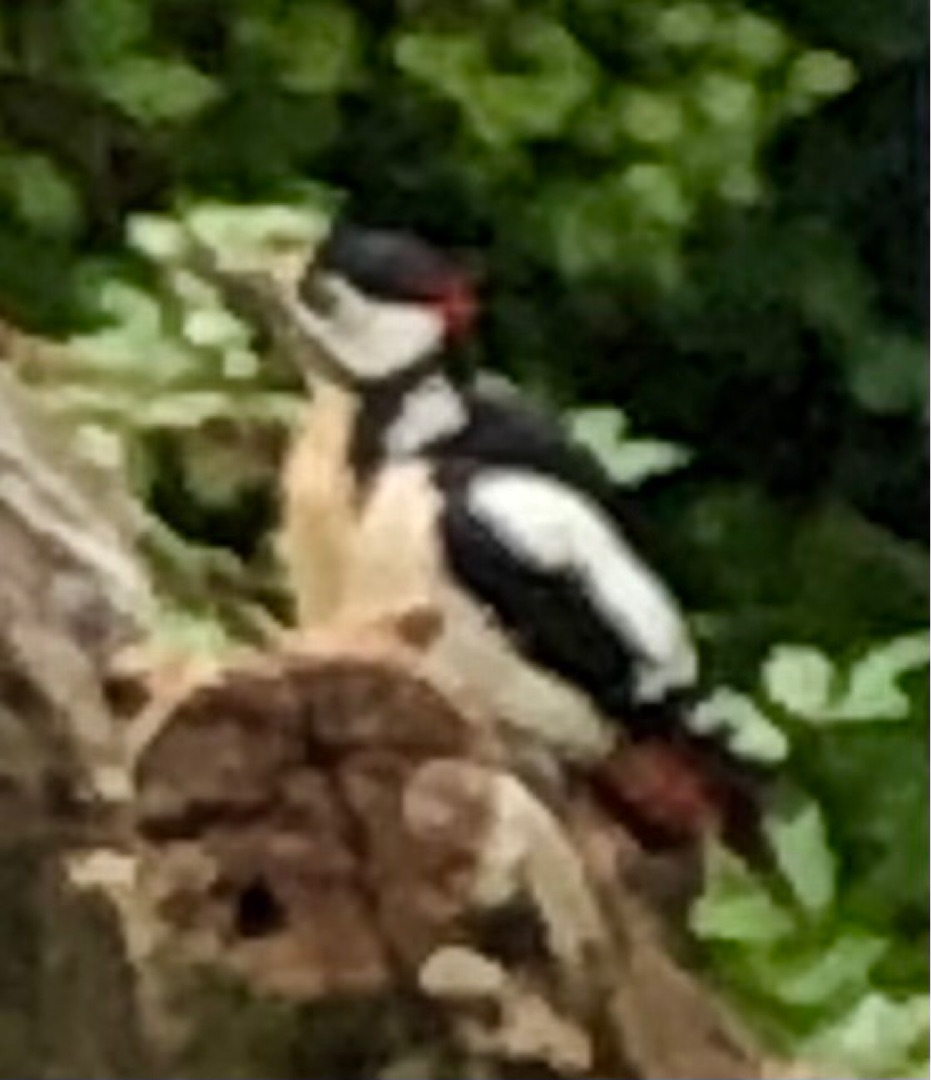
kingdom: Animalia
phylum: Chordata
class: Aves
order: Piciformes
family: Picidae
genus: Dendrocopos
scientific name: Dendrocopos major
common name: Stor flagspætte
